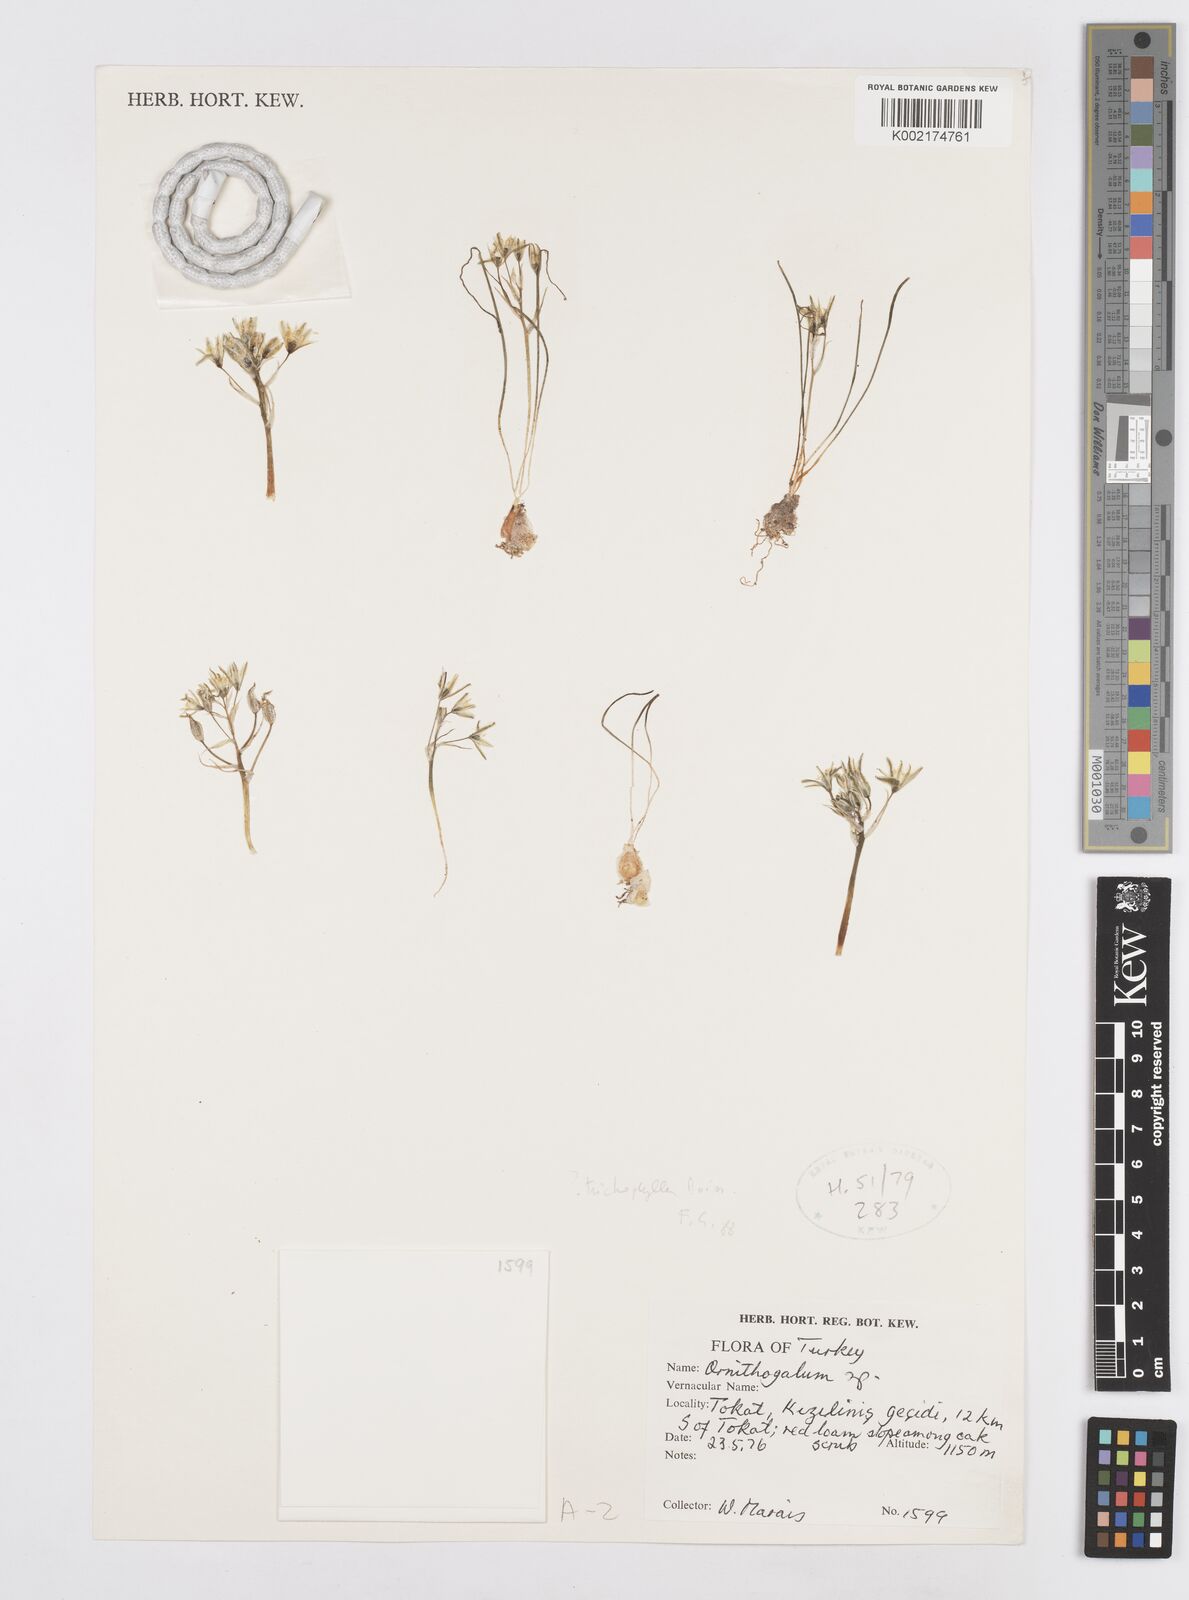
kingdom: Plantae
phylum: Tracheophyta
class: Liliopsida
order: Asparagales
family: Asparagaceae
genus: Ornithogalum
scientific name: Ornithogalum trichophyllum
